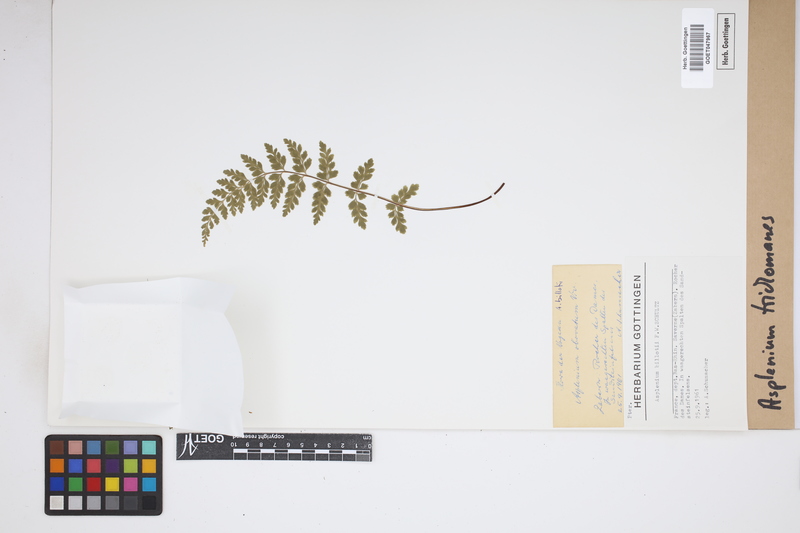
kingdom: Plantae
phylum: Tracheophyta
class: Polypodiopsida
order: Polypodiales
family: Aspleniaceae
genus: Asplenium
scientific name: Asplenium trichomanes
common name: Maidenhair spleenwort
